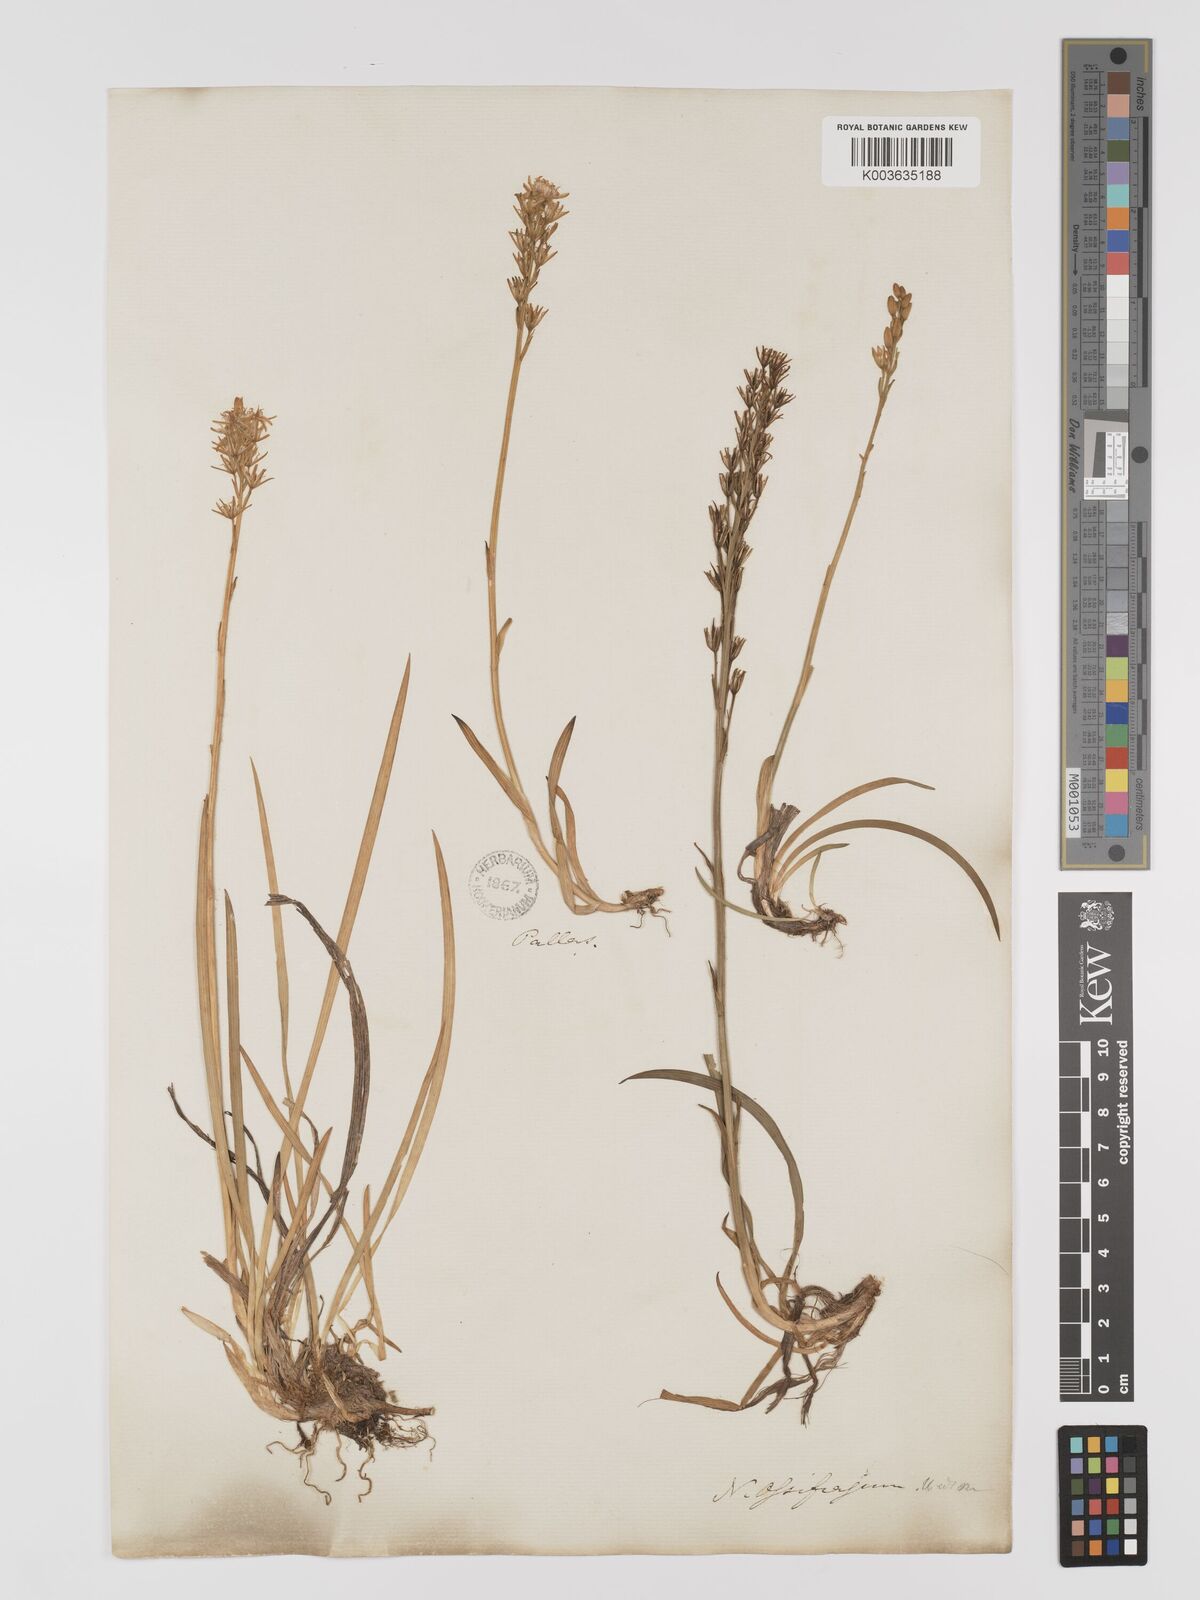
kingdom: Plantae
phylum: Tracheophyta
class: Liliopsida
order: Dioscoreales
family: Nartheciaceae
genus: Narthecium
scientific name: Narthecium
